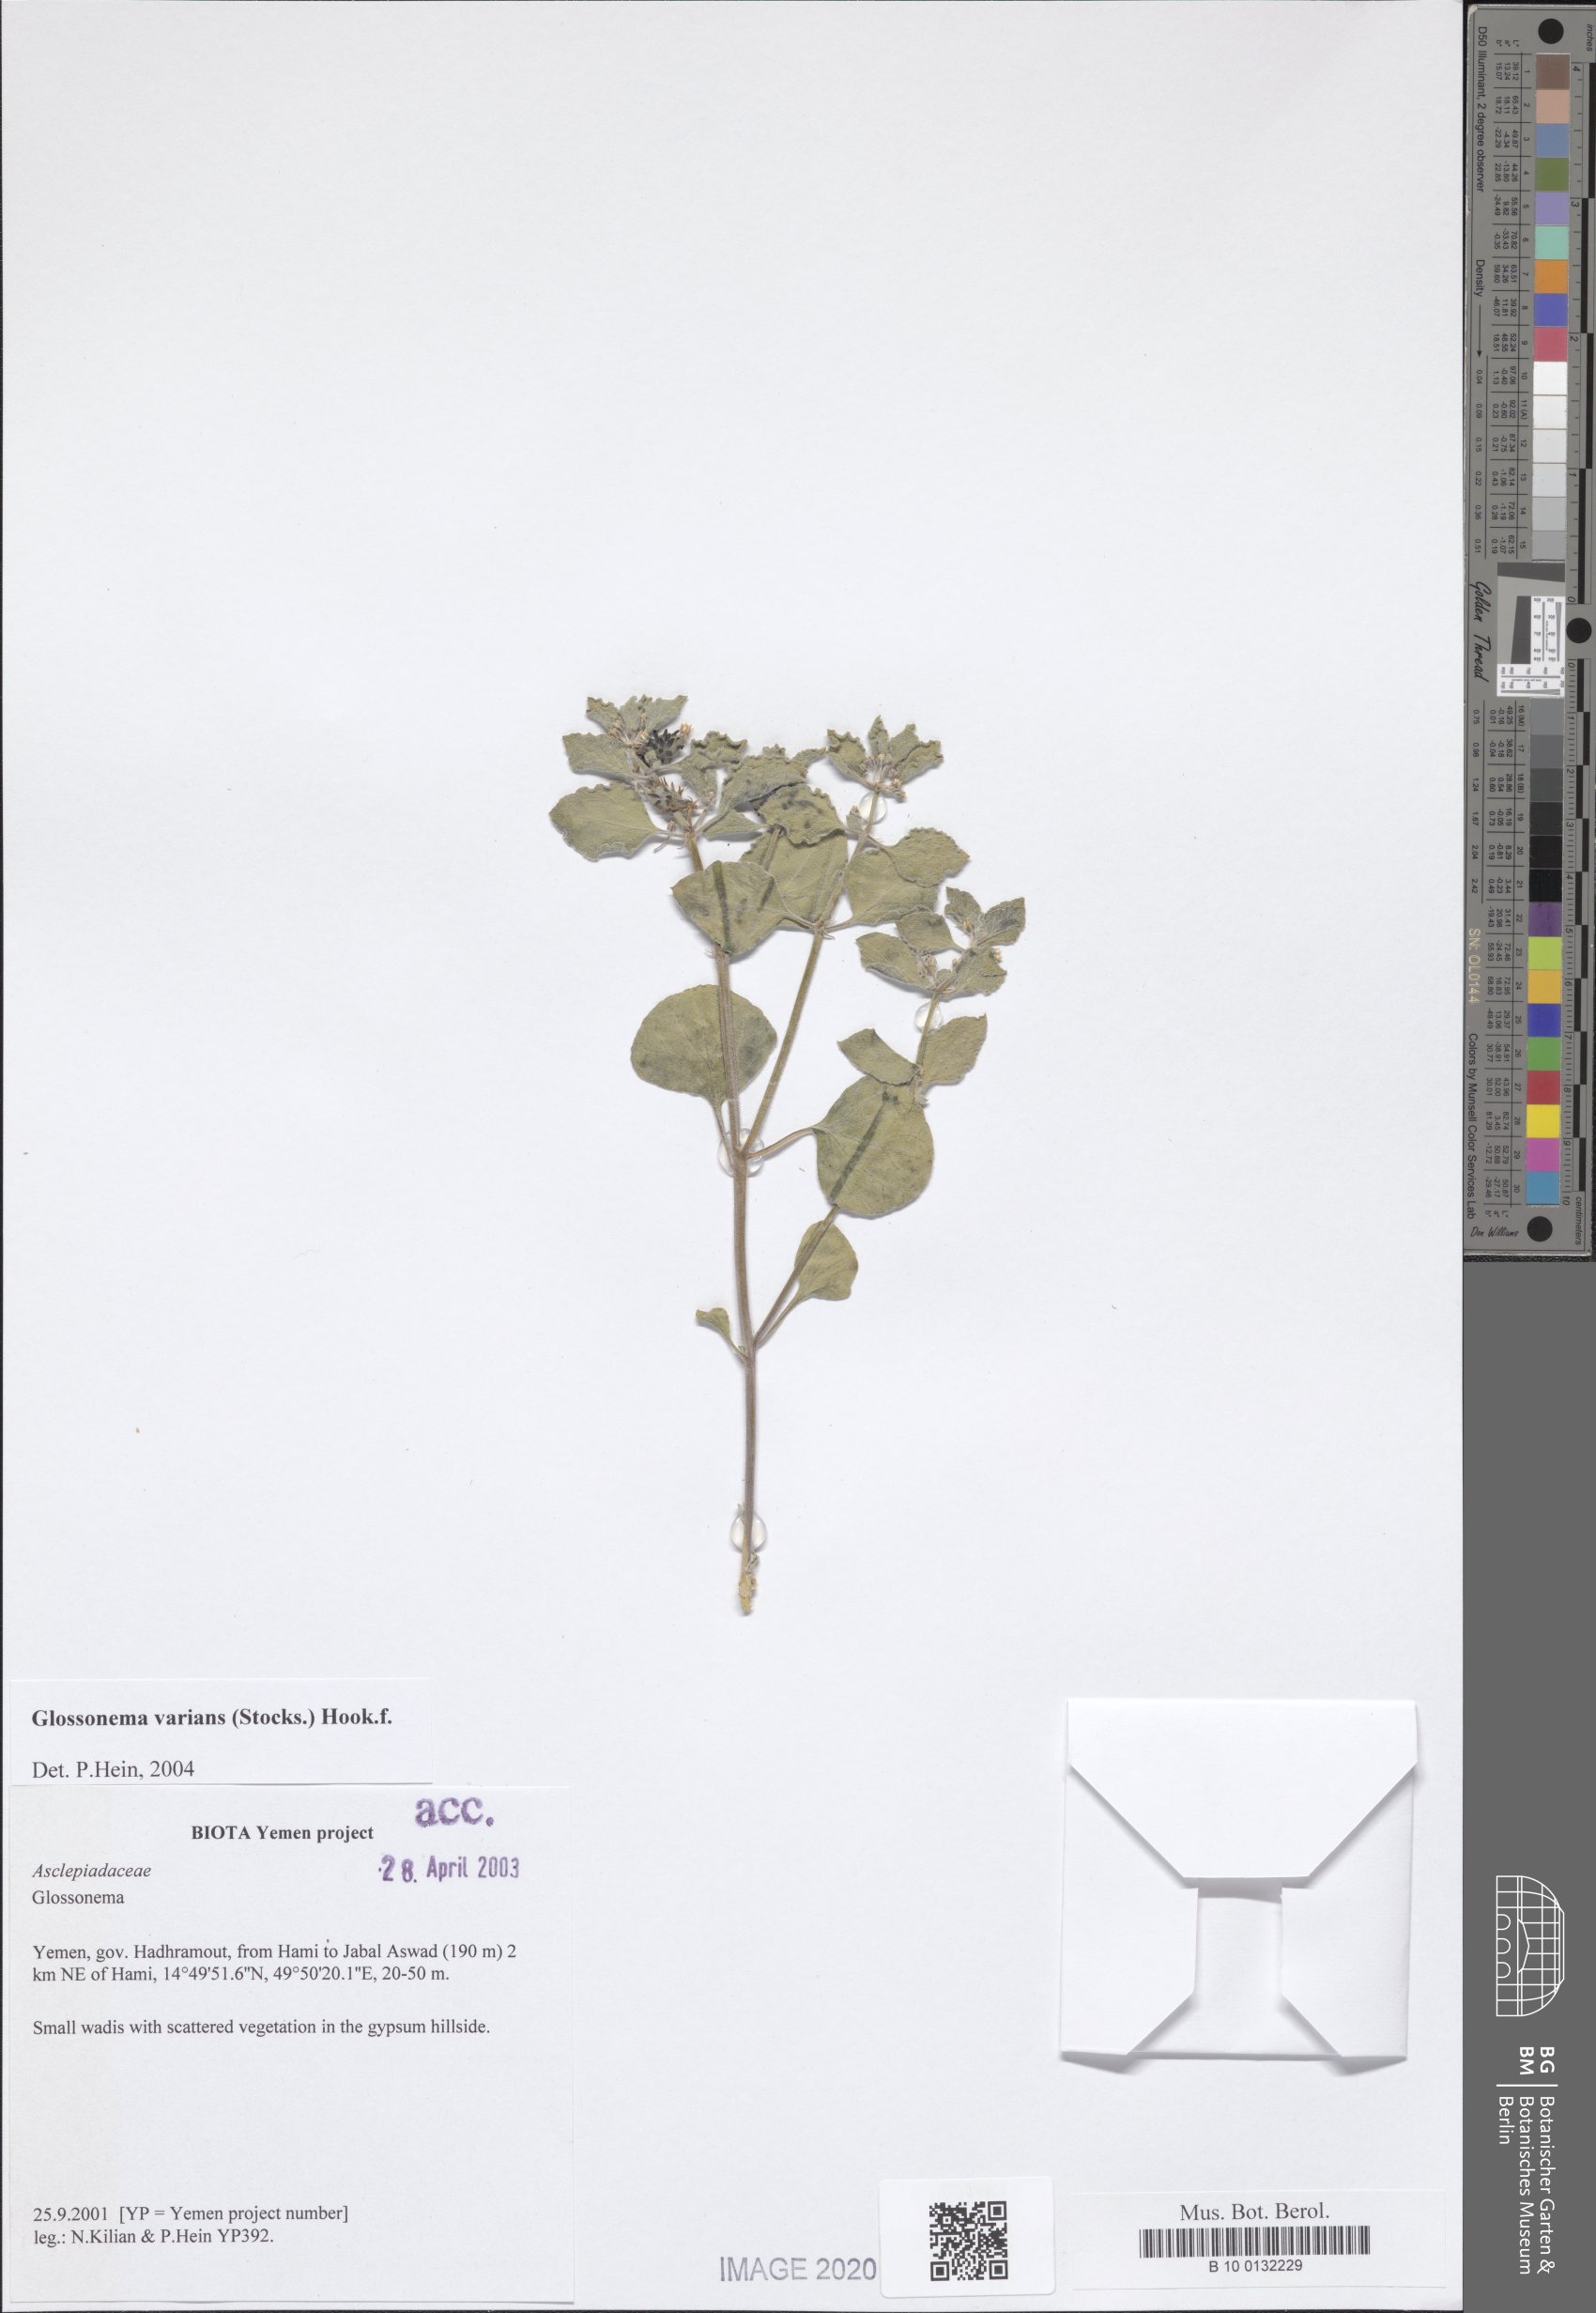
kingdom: Plantae
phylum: Tracheophyta
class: Magnoliopsida
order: Gentianales
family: Apocynaceae
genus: Cynanchum
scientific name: Cynanchum varians
